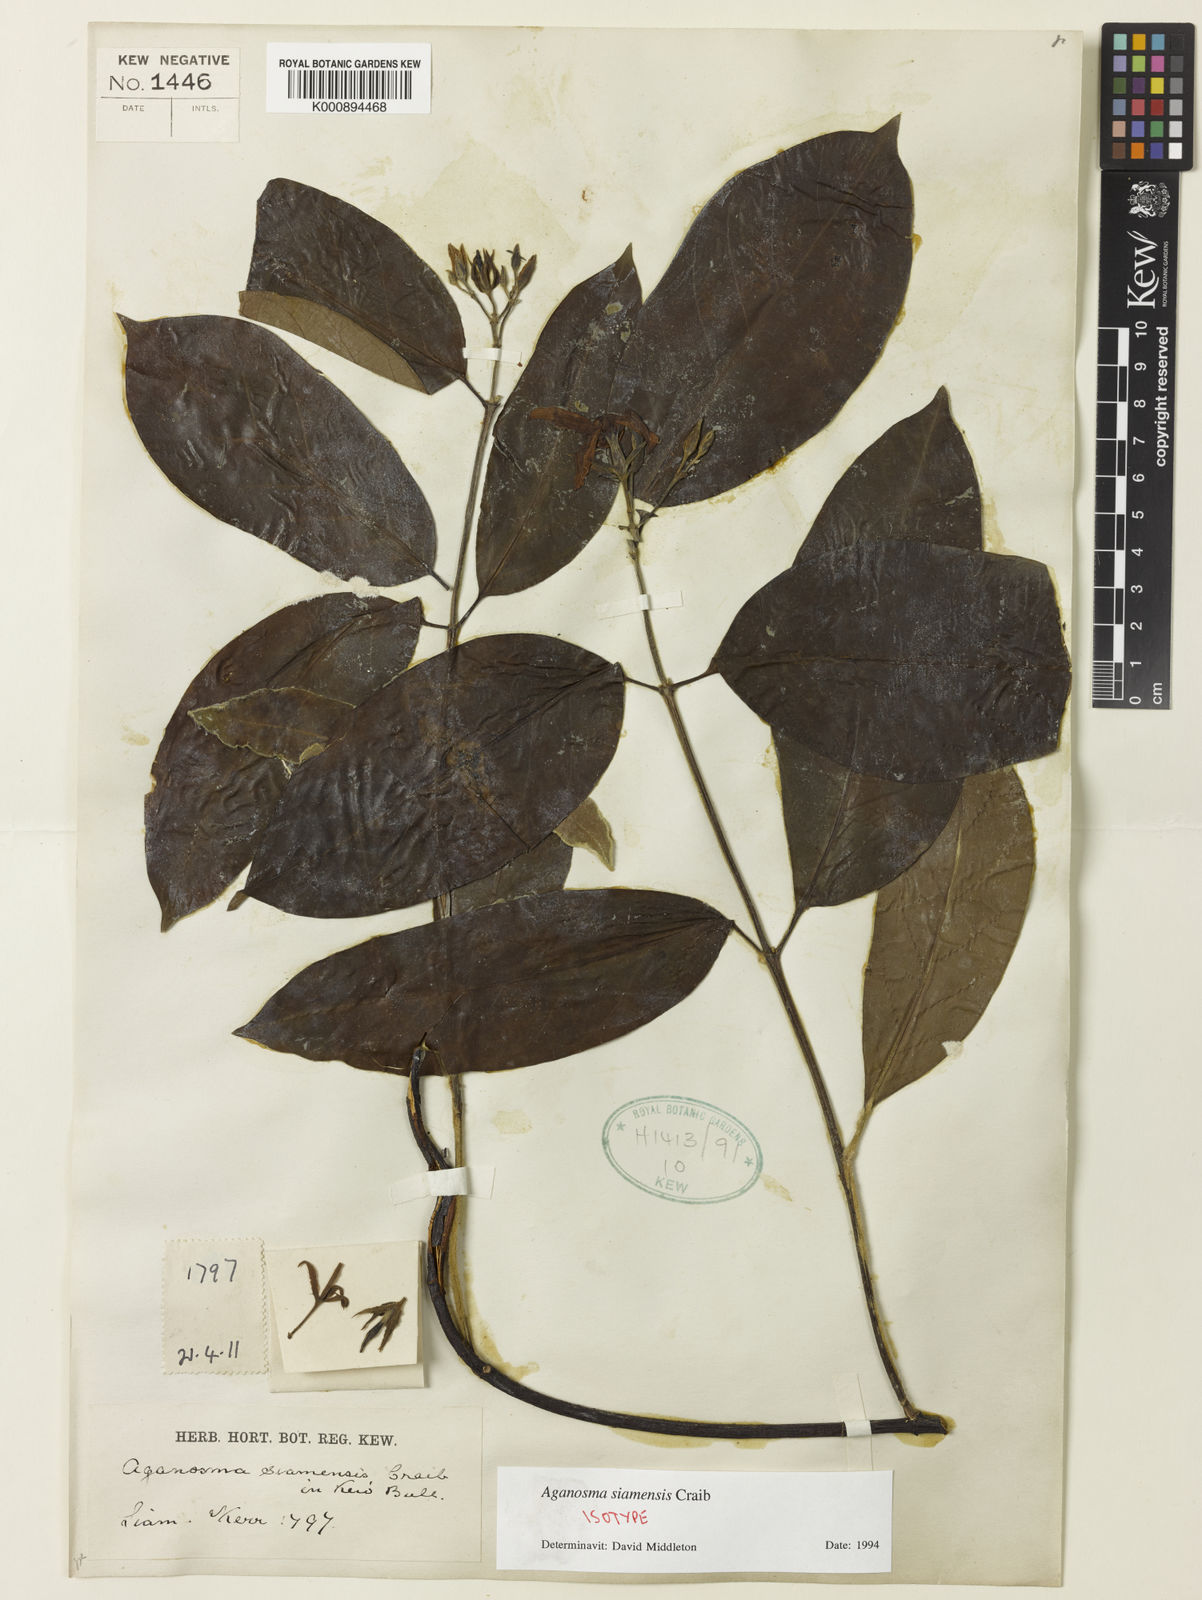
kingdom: Plantae
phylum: Tracheophyta
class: Magnoliopsida
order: Gentianales
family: Apocynaceae
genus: Aganosma
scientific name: Aganosma siamensis
